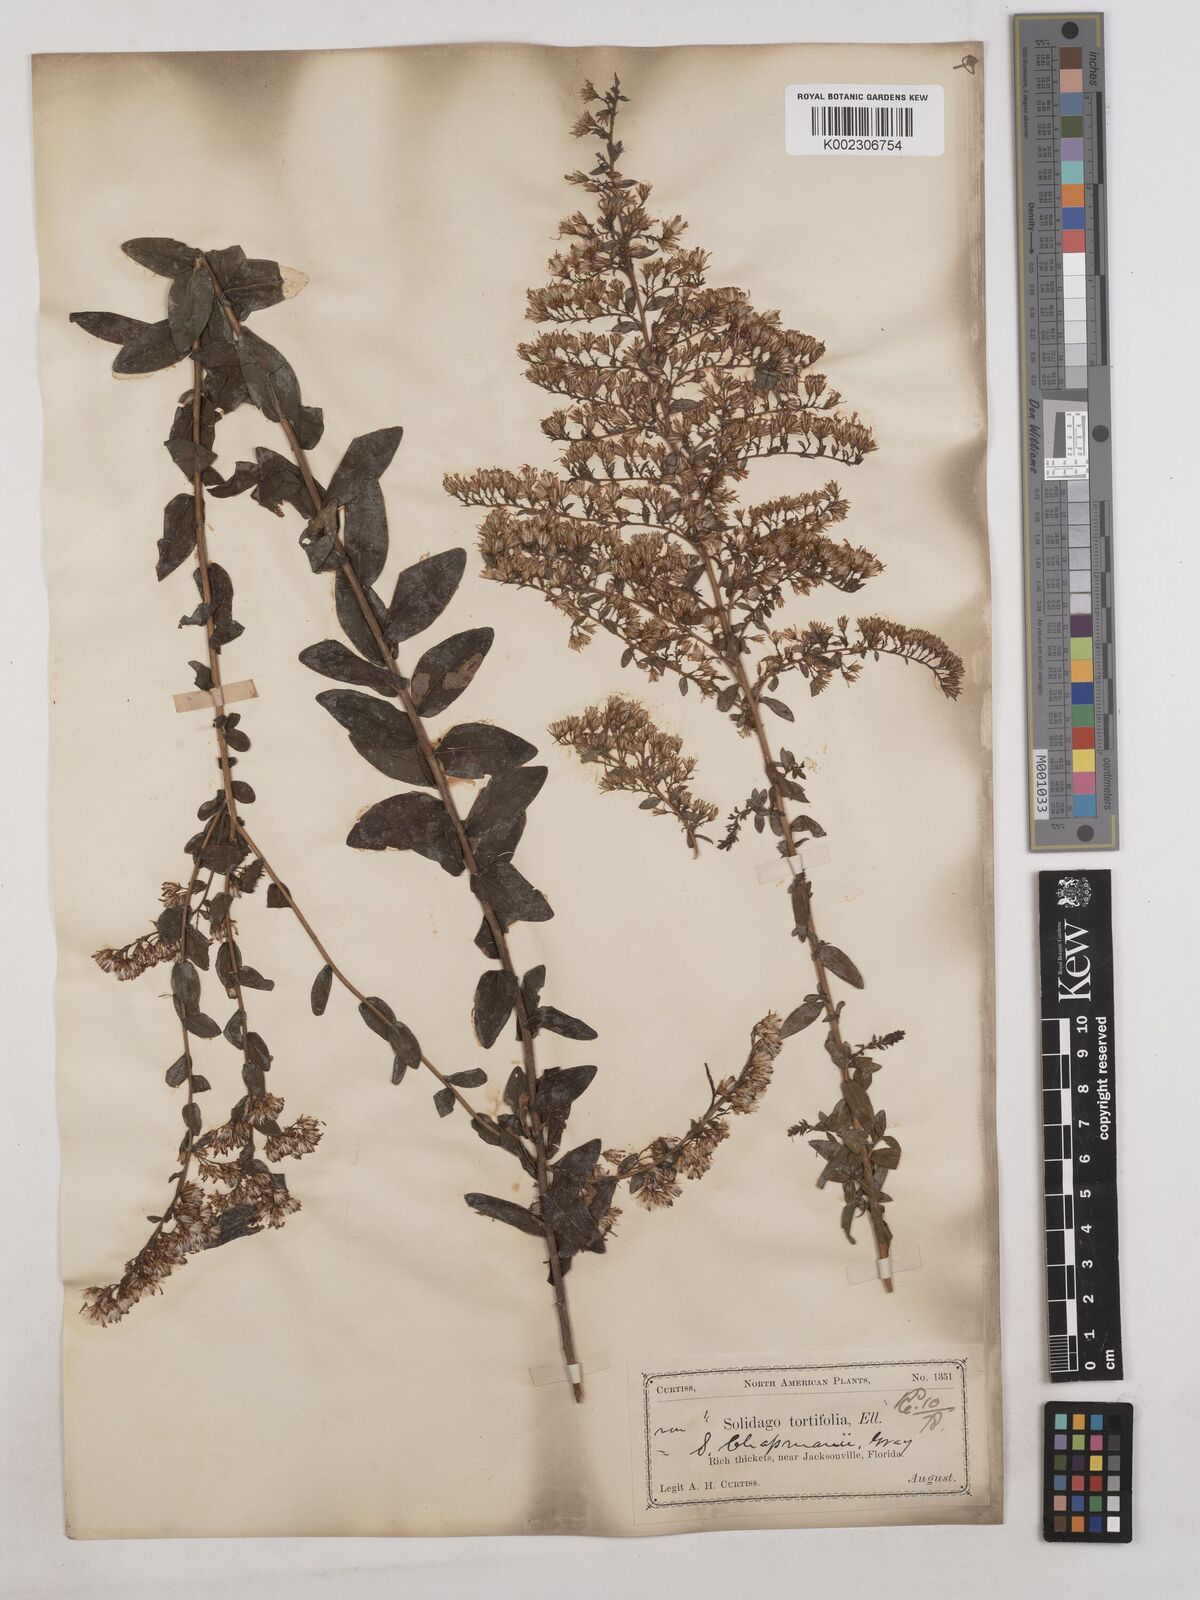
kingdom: Plantae
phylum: Tracheophyta
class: Magnoliopsida
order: Asterales
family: Asteraceae
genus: Solidago
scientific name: Solidago chapmanii
